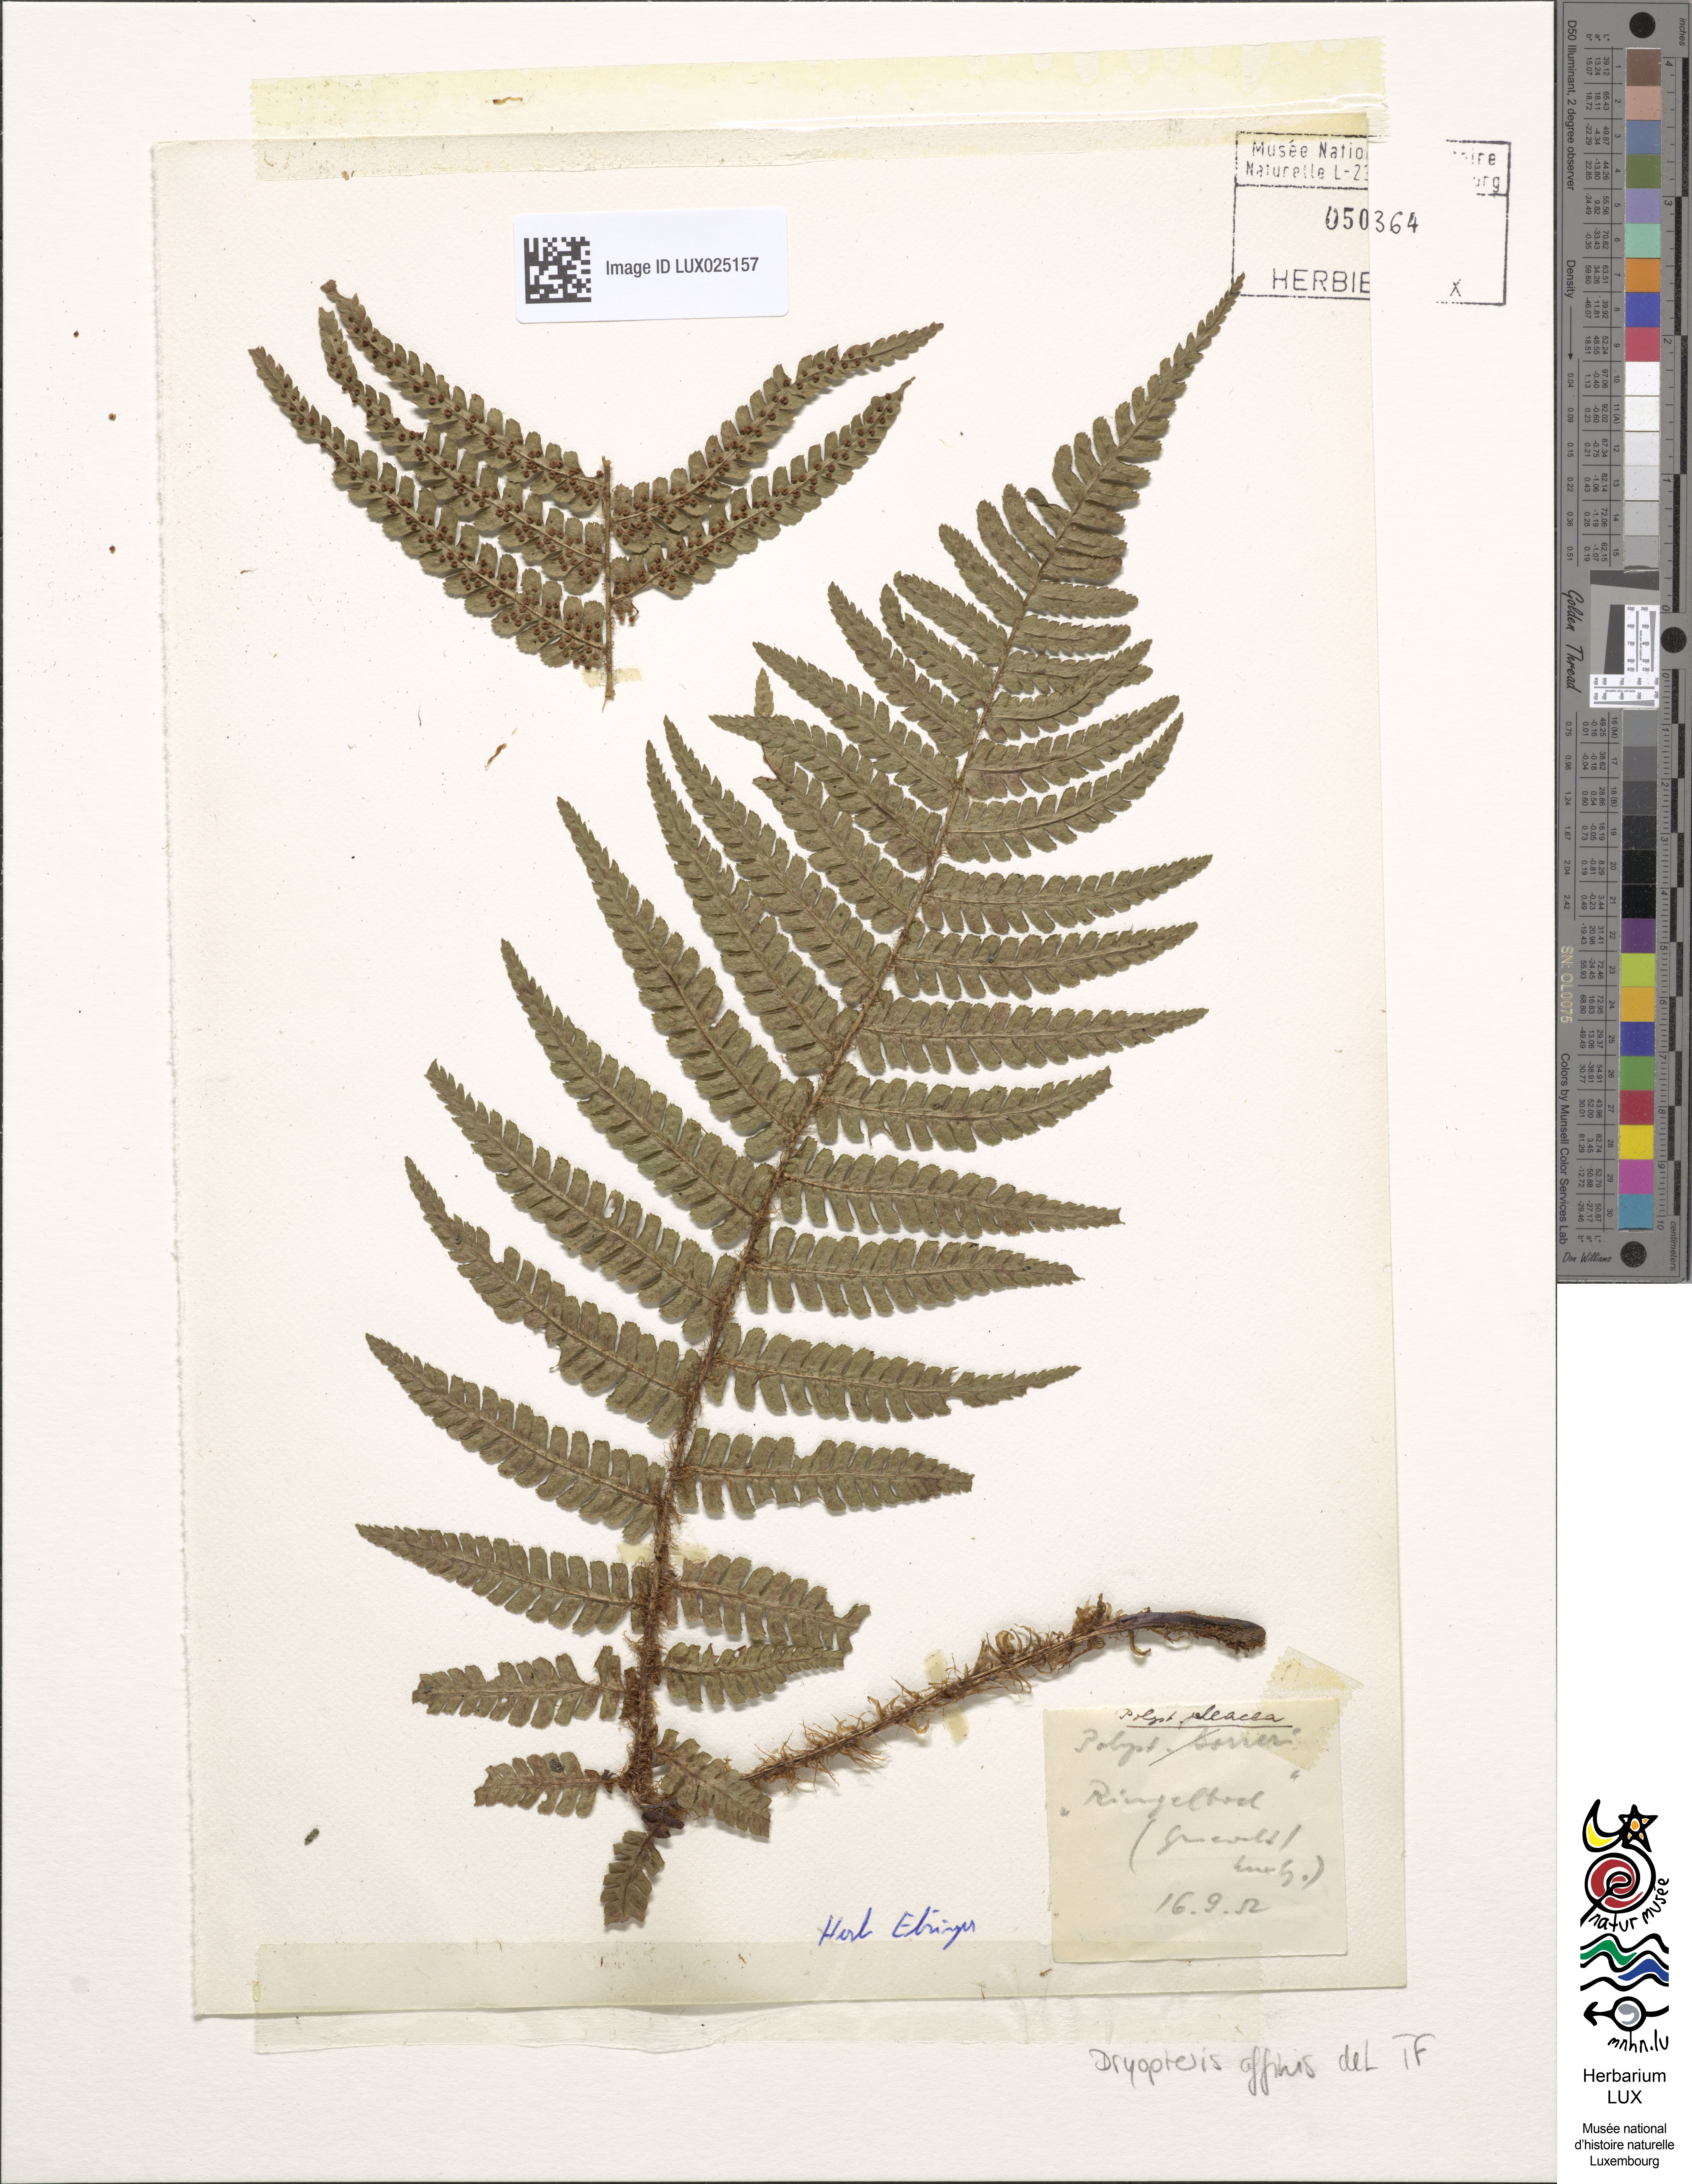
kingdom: Plantae
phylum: Tracheophyta
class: Polypodiopsida
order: Polypodiales
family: Dryopteridaceae
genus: Dryopteris
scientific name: Dryopteris affinis
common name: Scaly male fern
